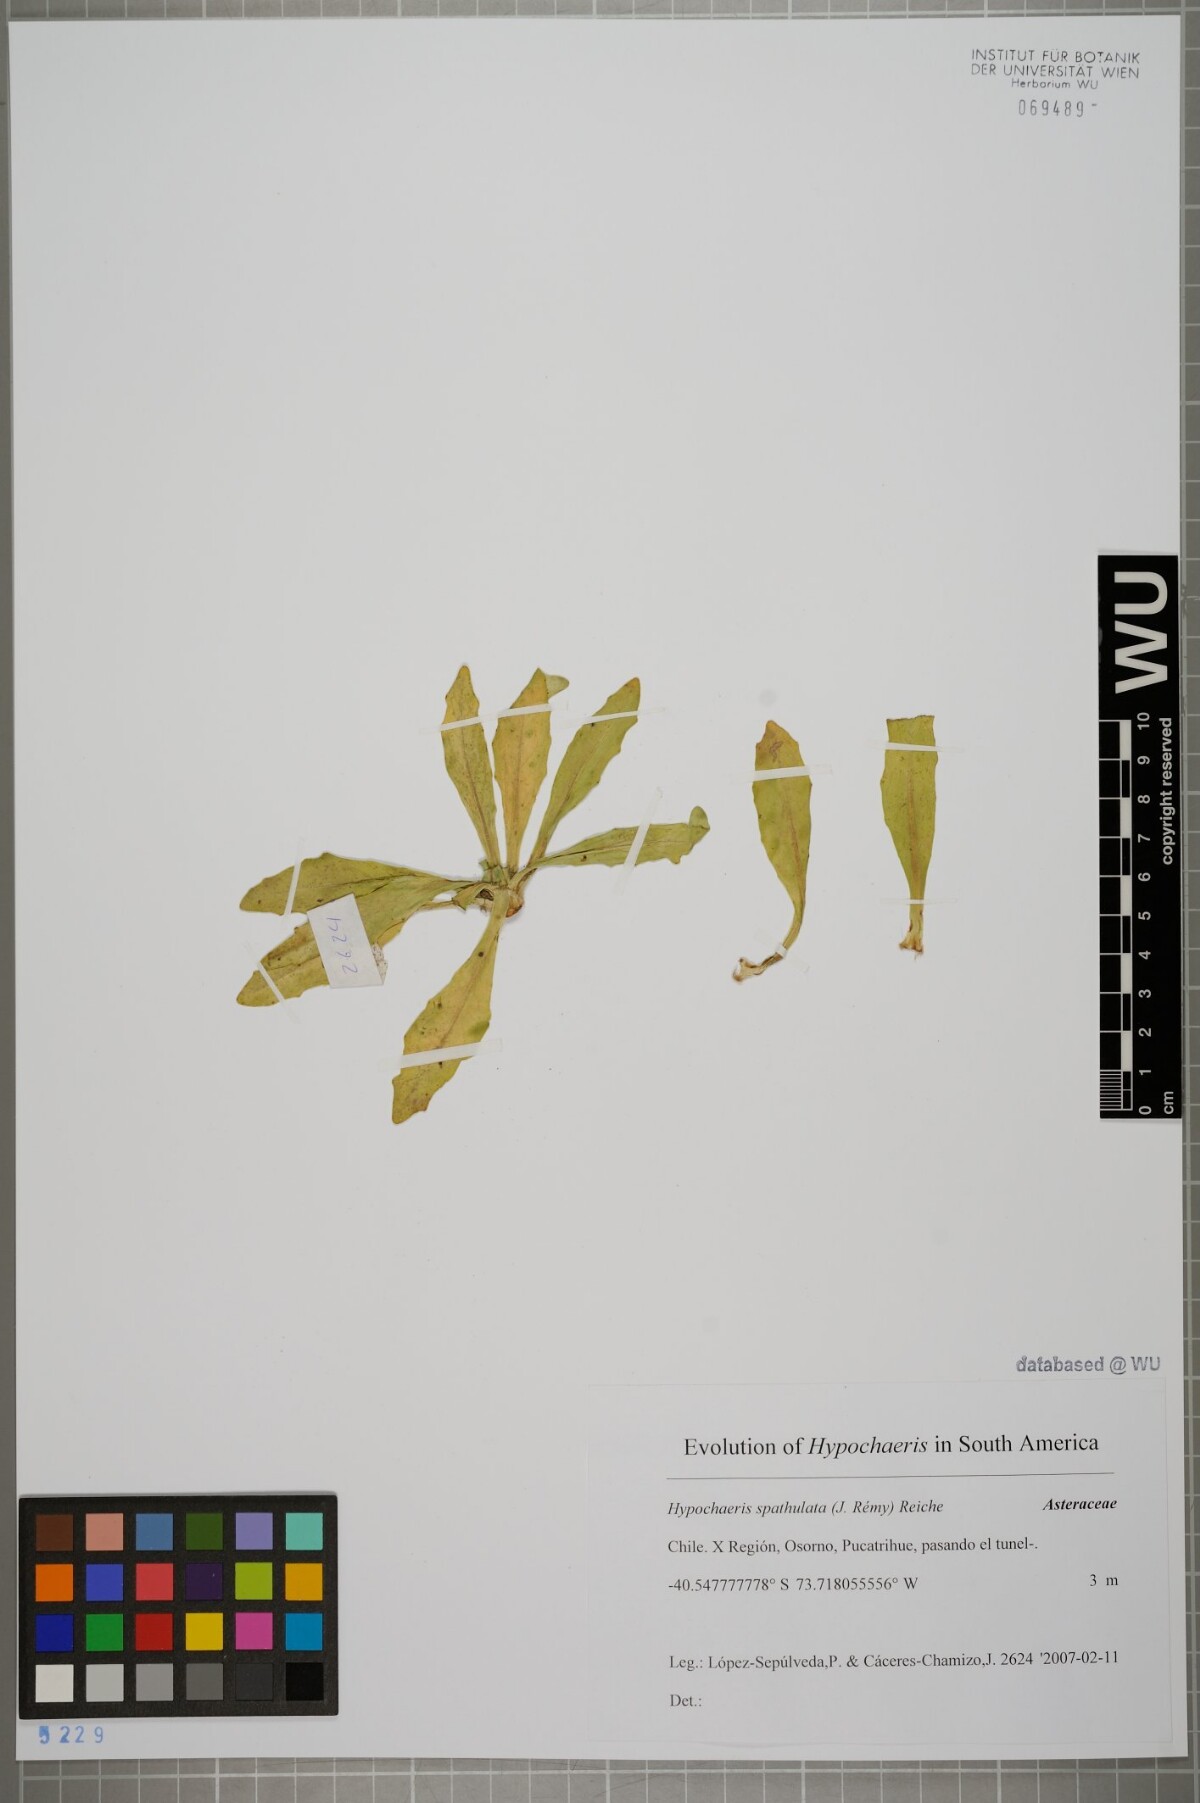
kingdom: Plantae
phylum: Tracheophyta
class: Magnoliopsida
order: Asterales
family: Asteraceae
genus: Hypochaeris
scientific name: Hypochaeris spathulata
